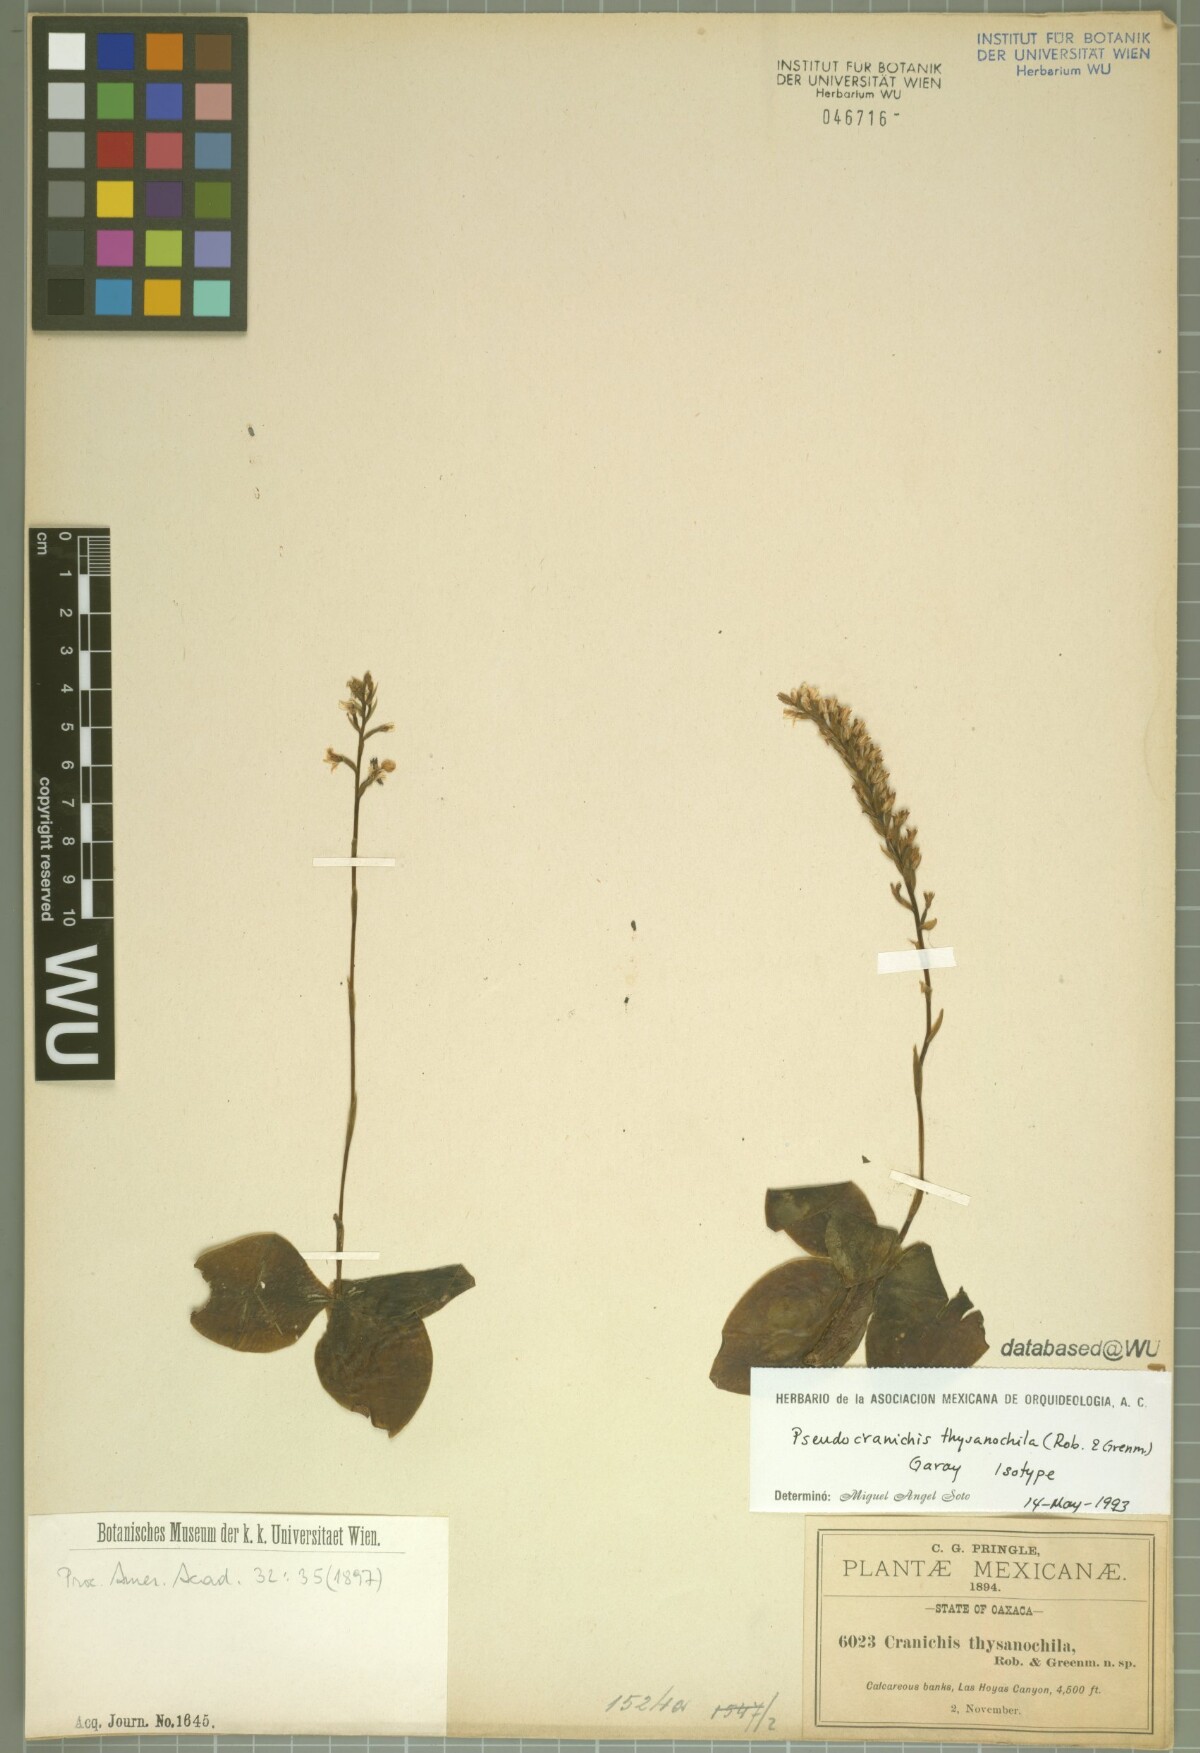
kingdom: Plantae
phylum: Tracheophyta
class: Liliopsida
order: Asparagales
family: Orchidaceae
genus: Galeoglossum
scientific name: Galeoglossum thysanochilum
